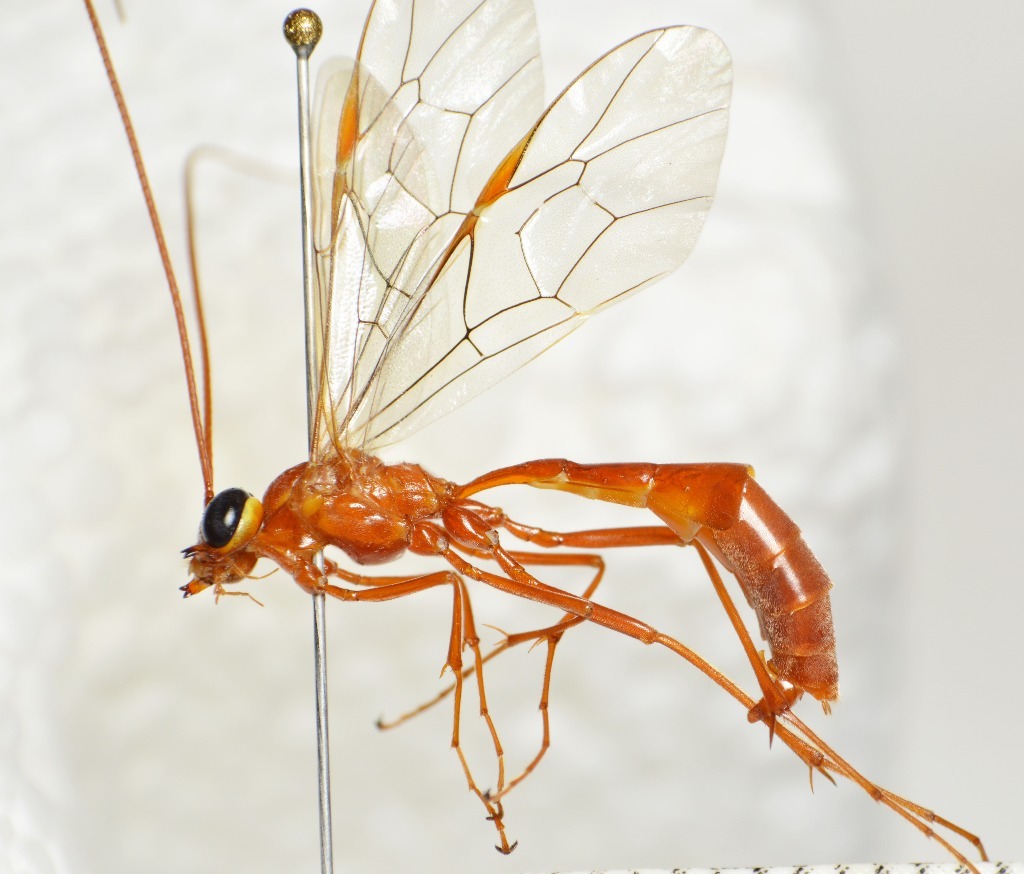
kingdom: Animalia
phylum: Arthropoda
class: Insecta
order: Hymenoptera
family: Ichneumonidae
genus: Ophion
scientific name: Ophion luteus
